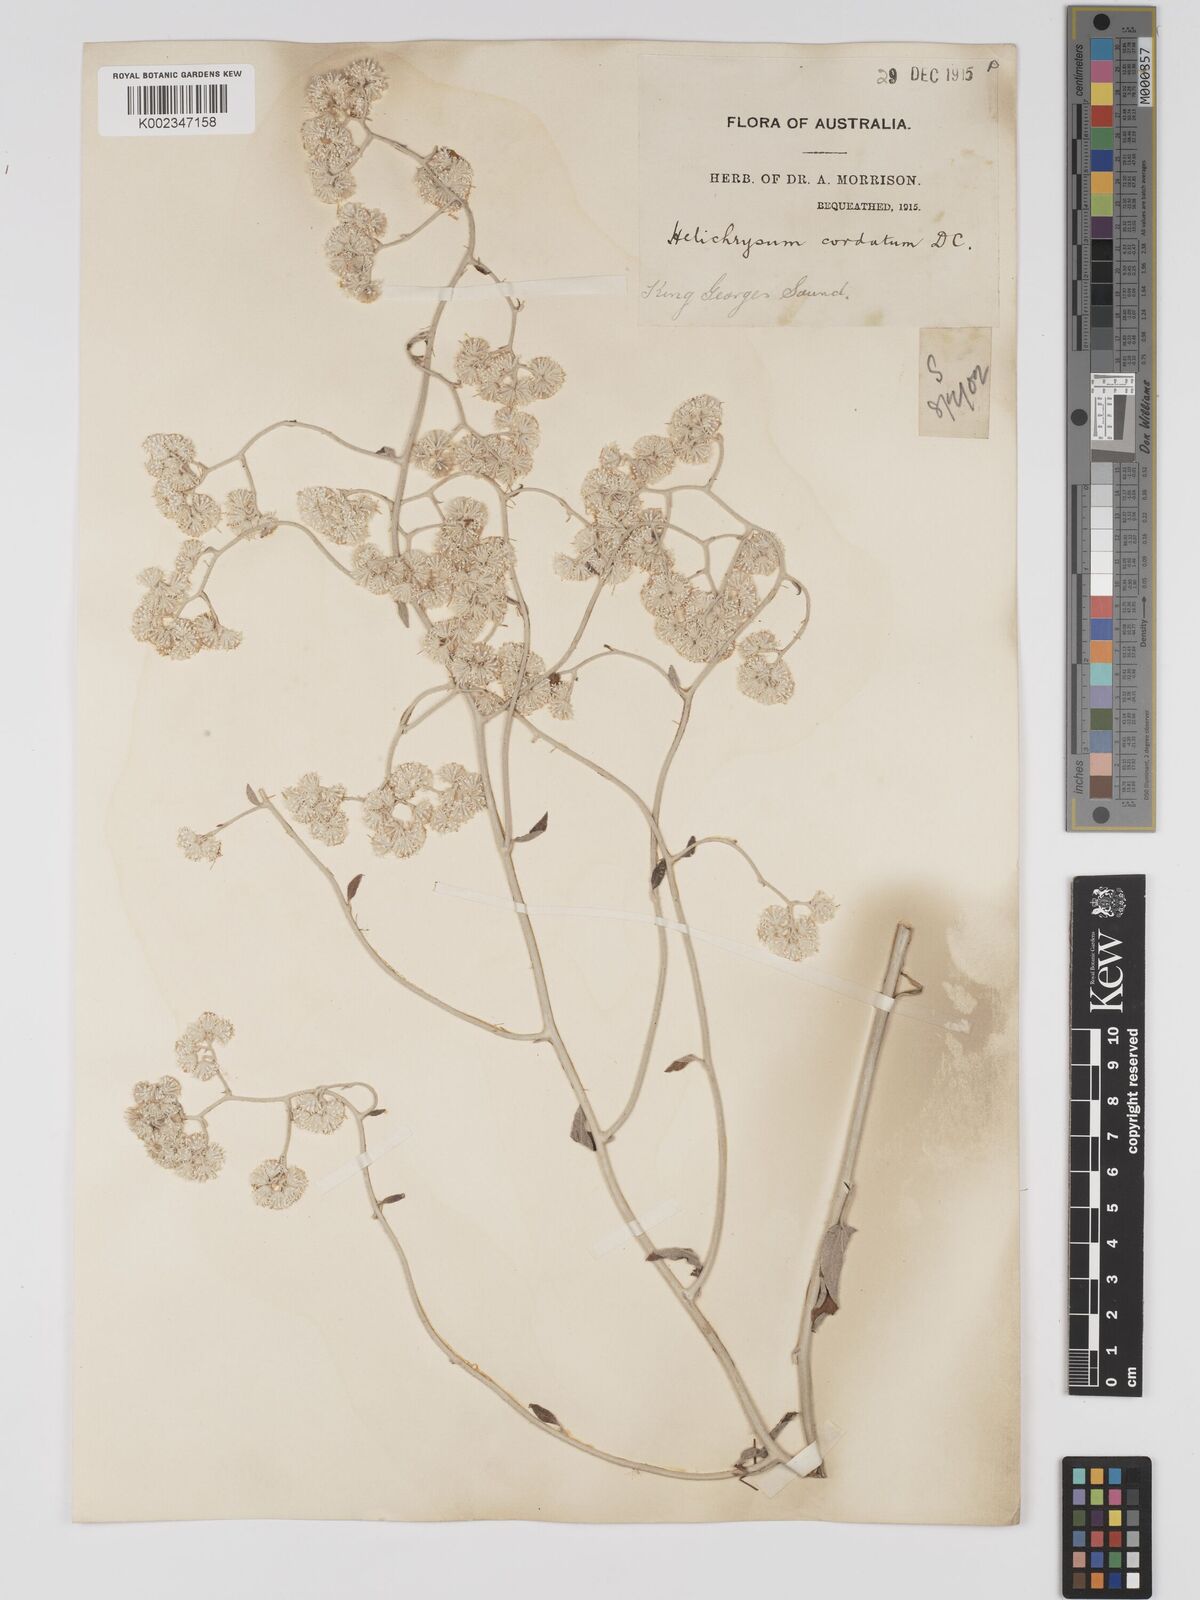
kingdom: Plantae
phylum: Tracheophyta
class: Magnoliopsida
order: Asterales
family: Asteraceae
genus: Ozothamnus
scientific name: Ozothamnus
